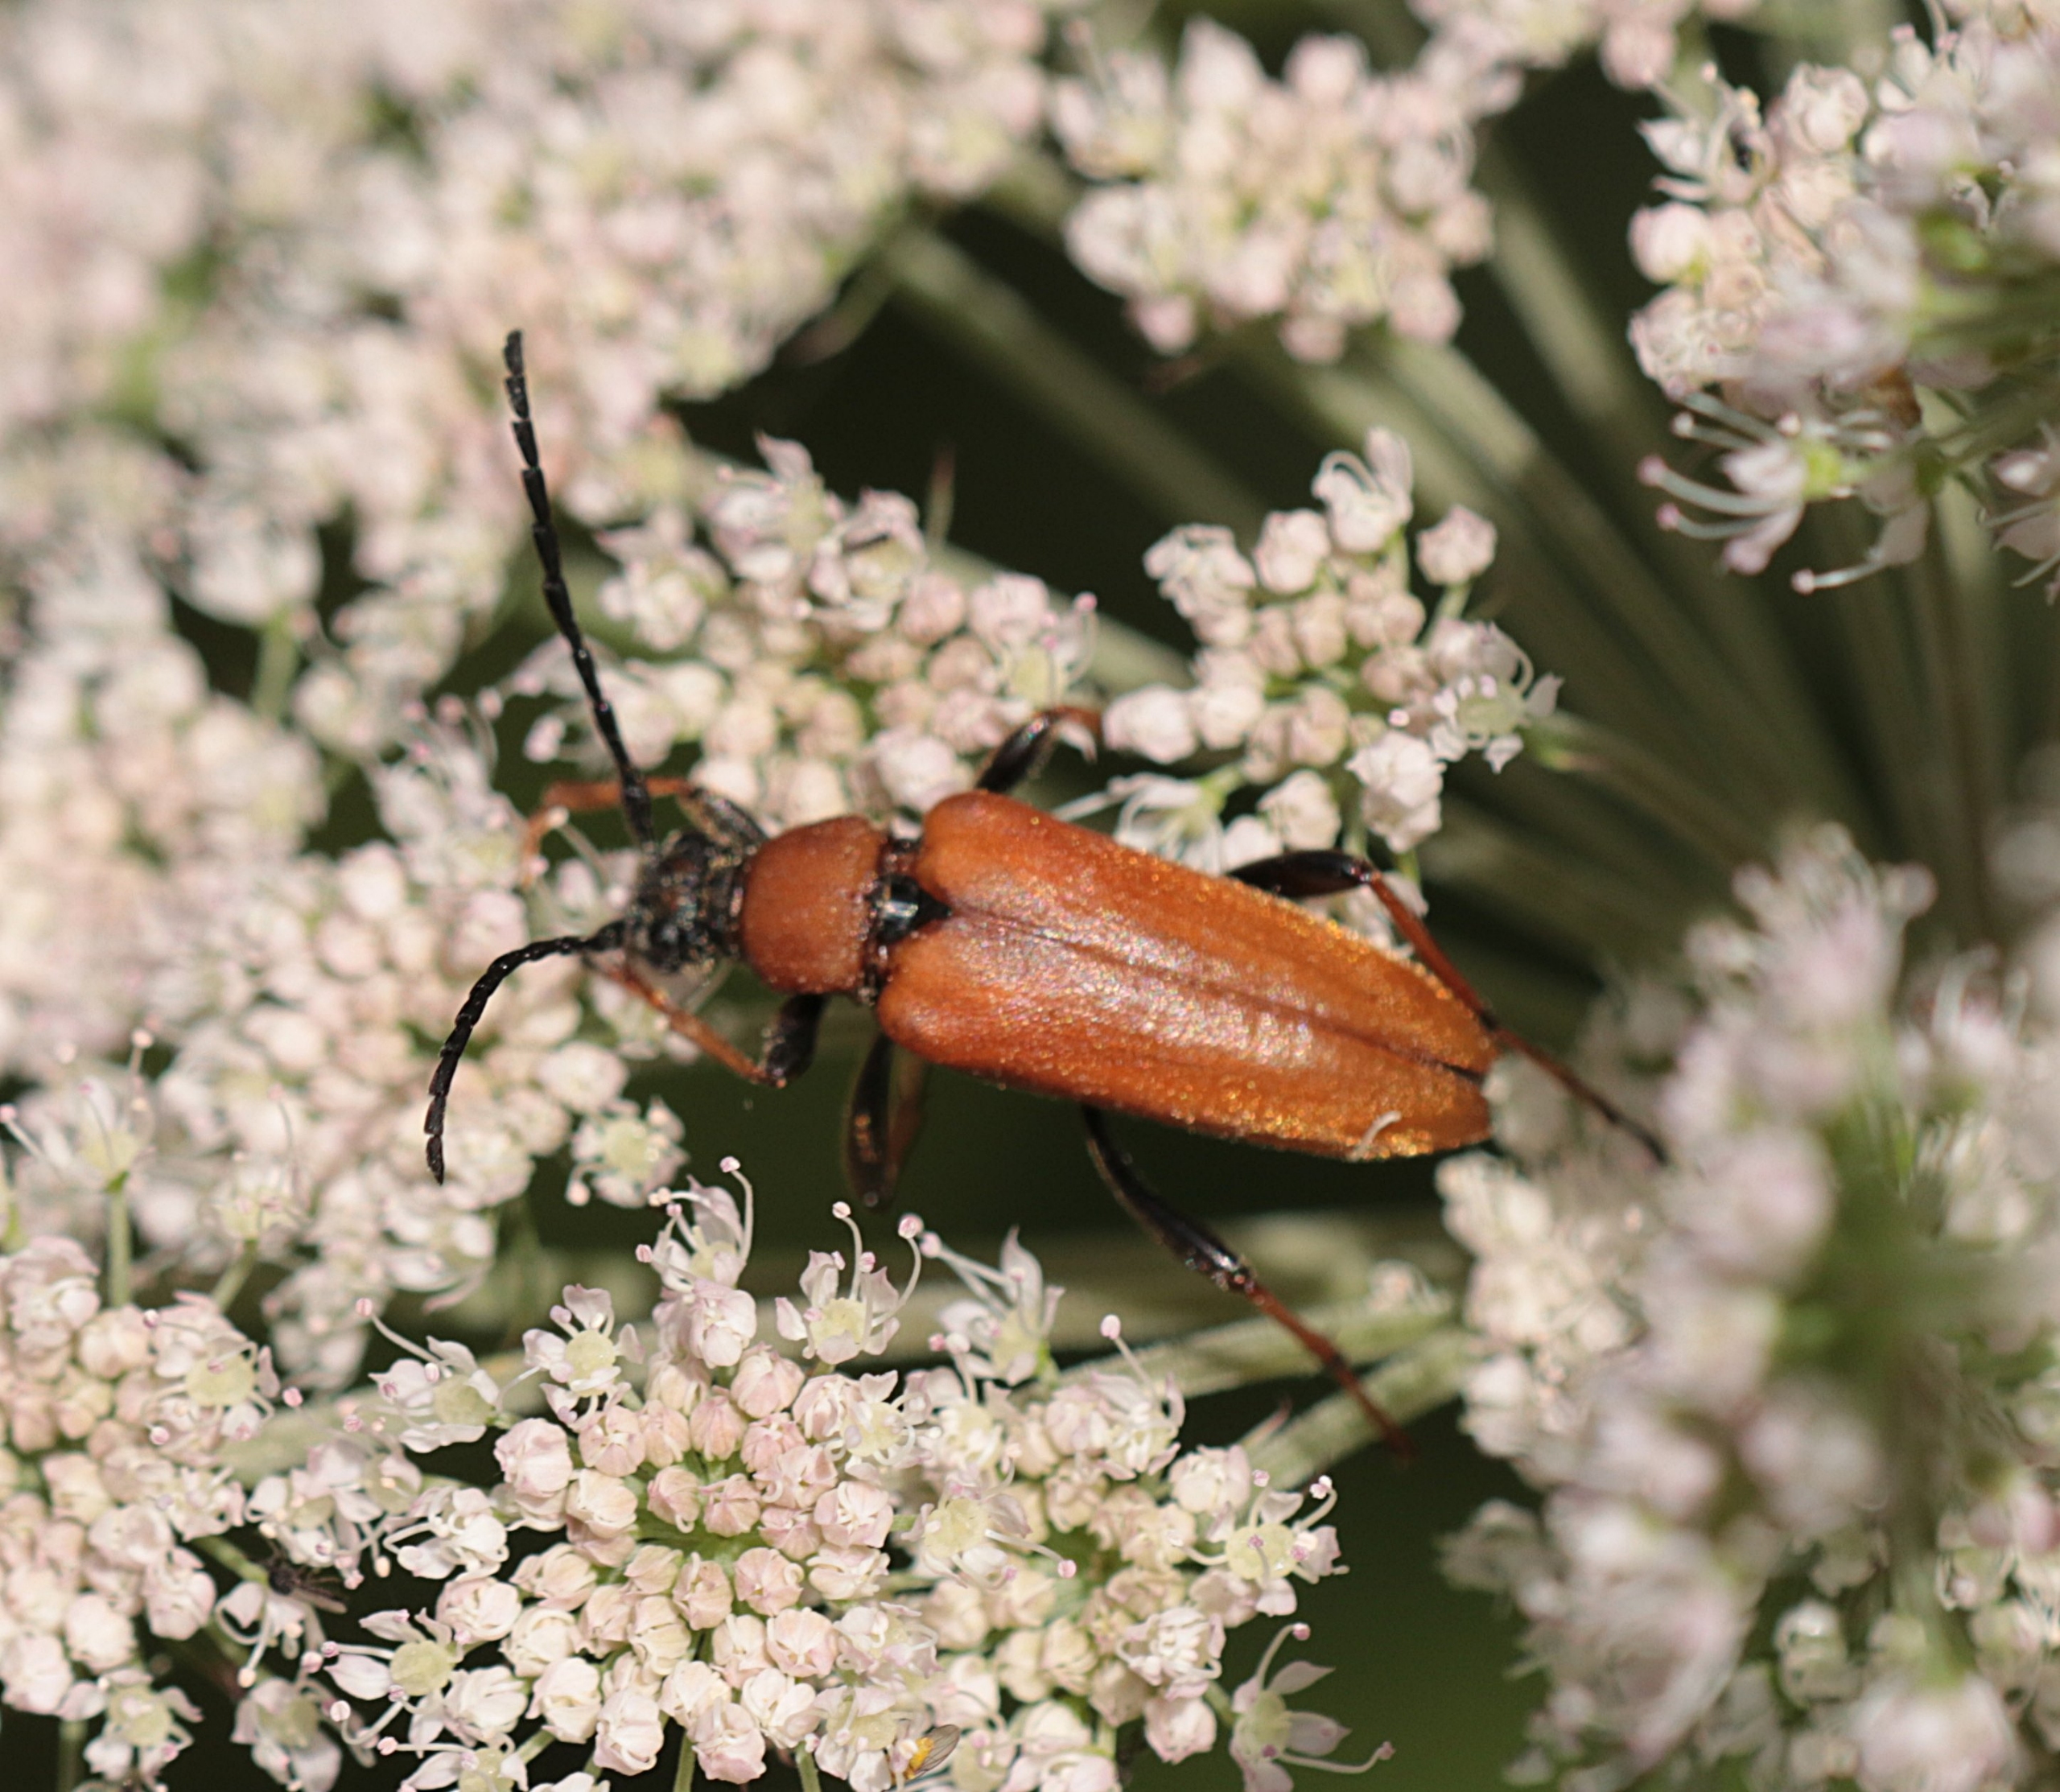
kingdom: Animalia
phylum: Arthropoda
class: Insecta
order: Coleoptera
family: Cerambycidae
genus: Stictoleptura
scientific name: Stictoleptura rubra
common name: Rød blomsterbuk
